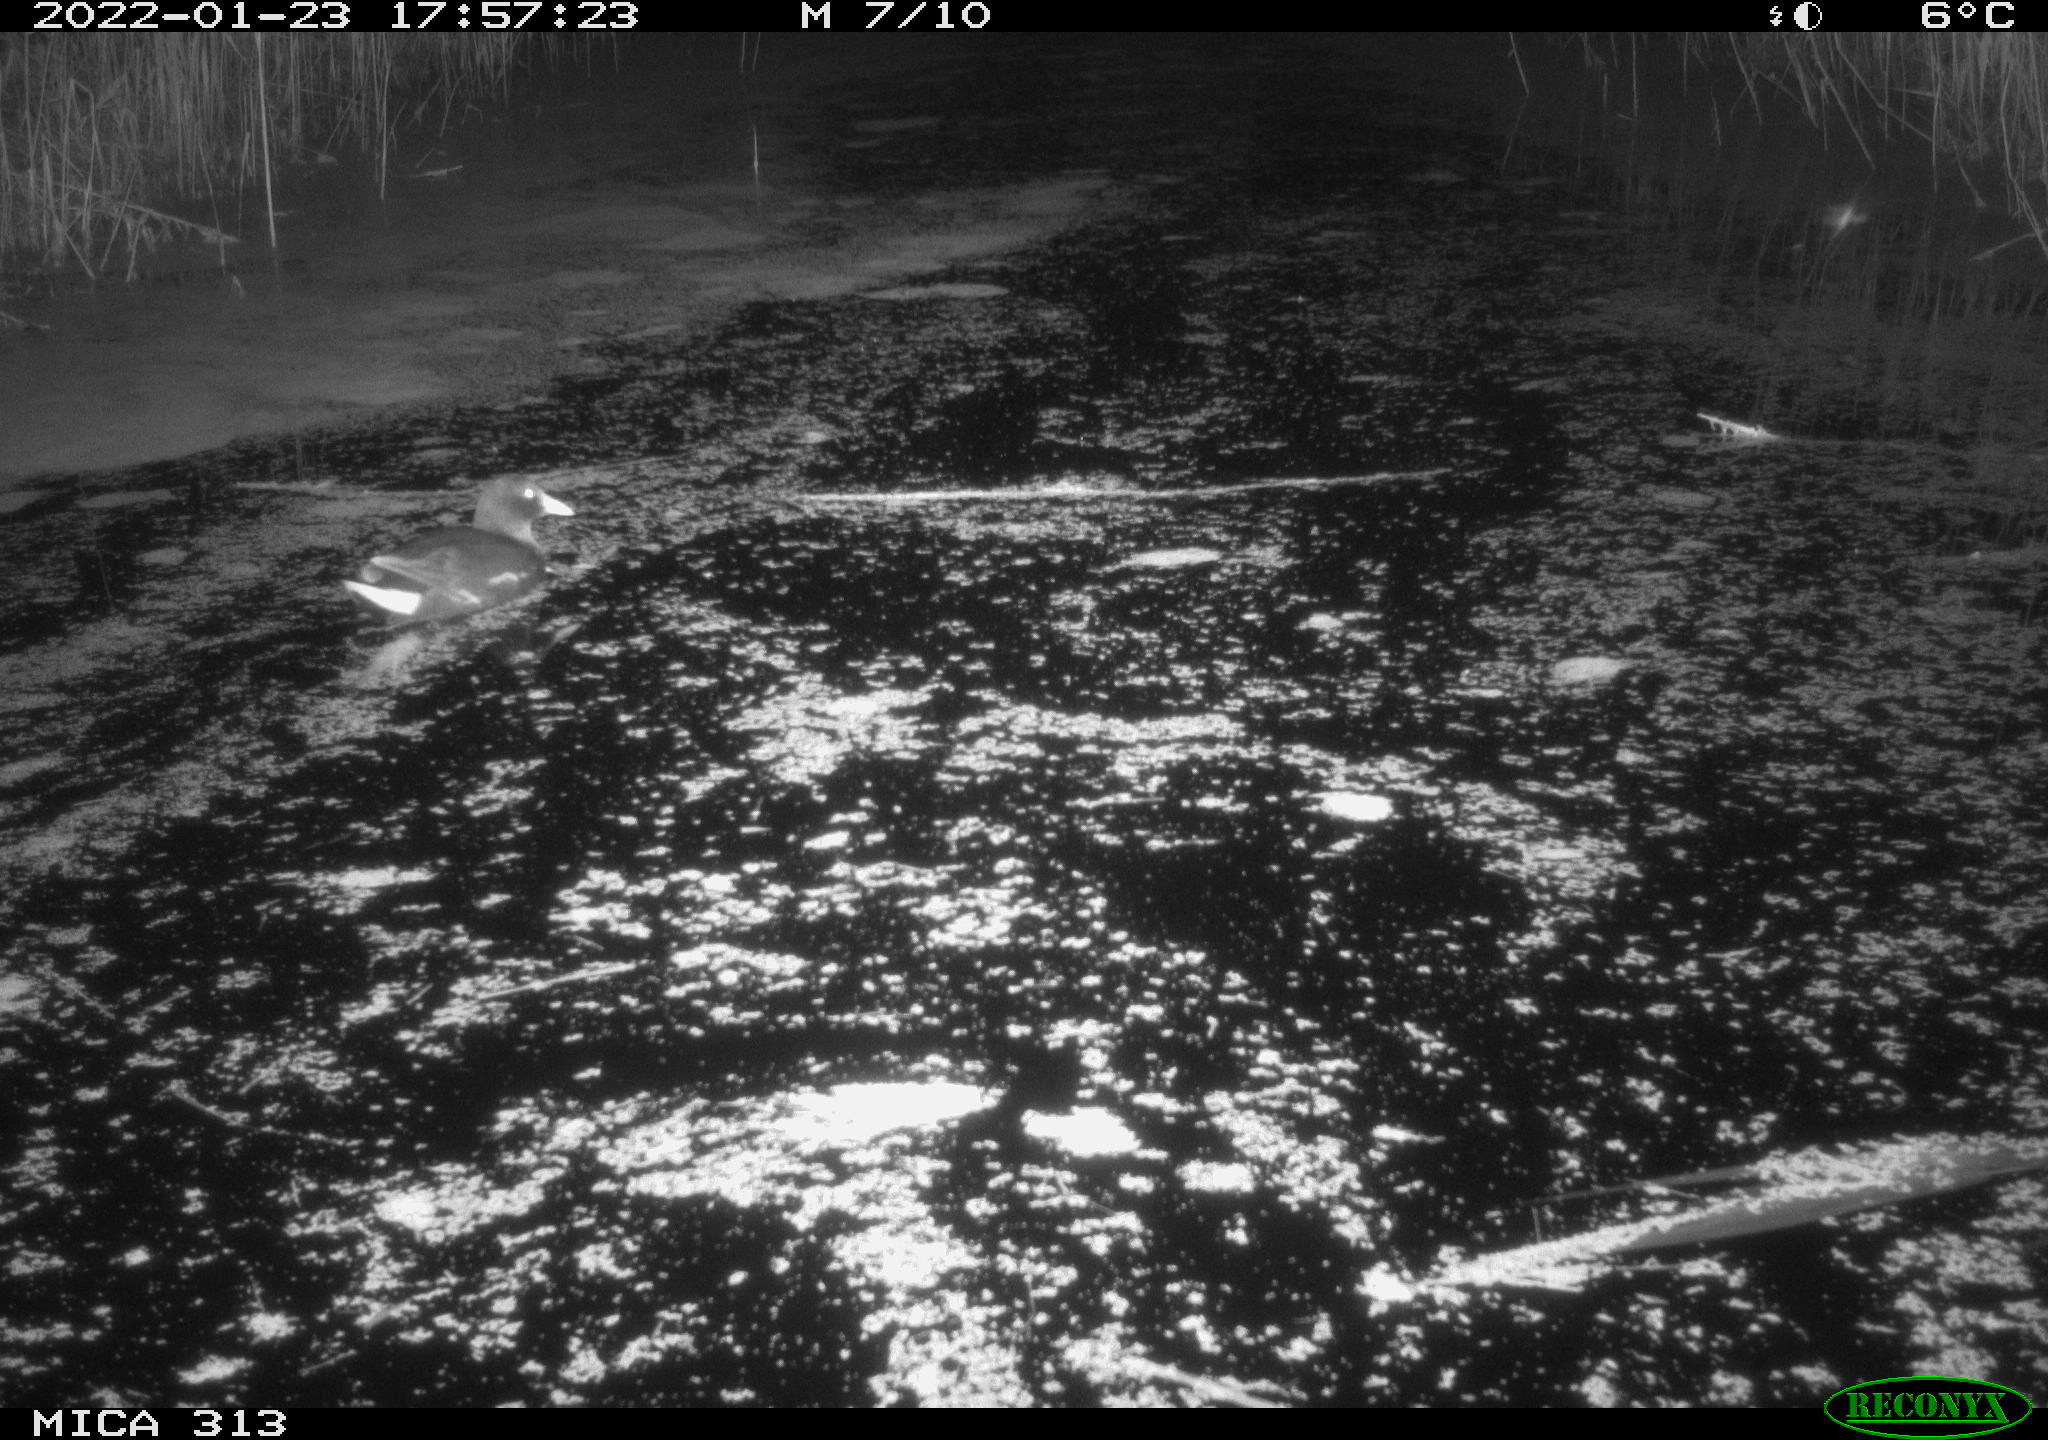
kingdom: Animalia
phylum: Chordata
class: Aves
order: Gruiformes
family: Rallidae
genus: Gallinula
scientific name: Gallinula chloropus
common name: Common moorhen
